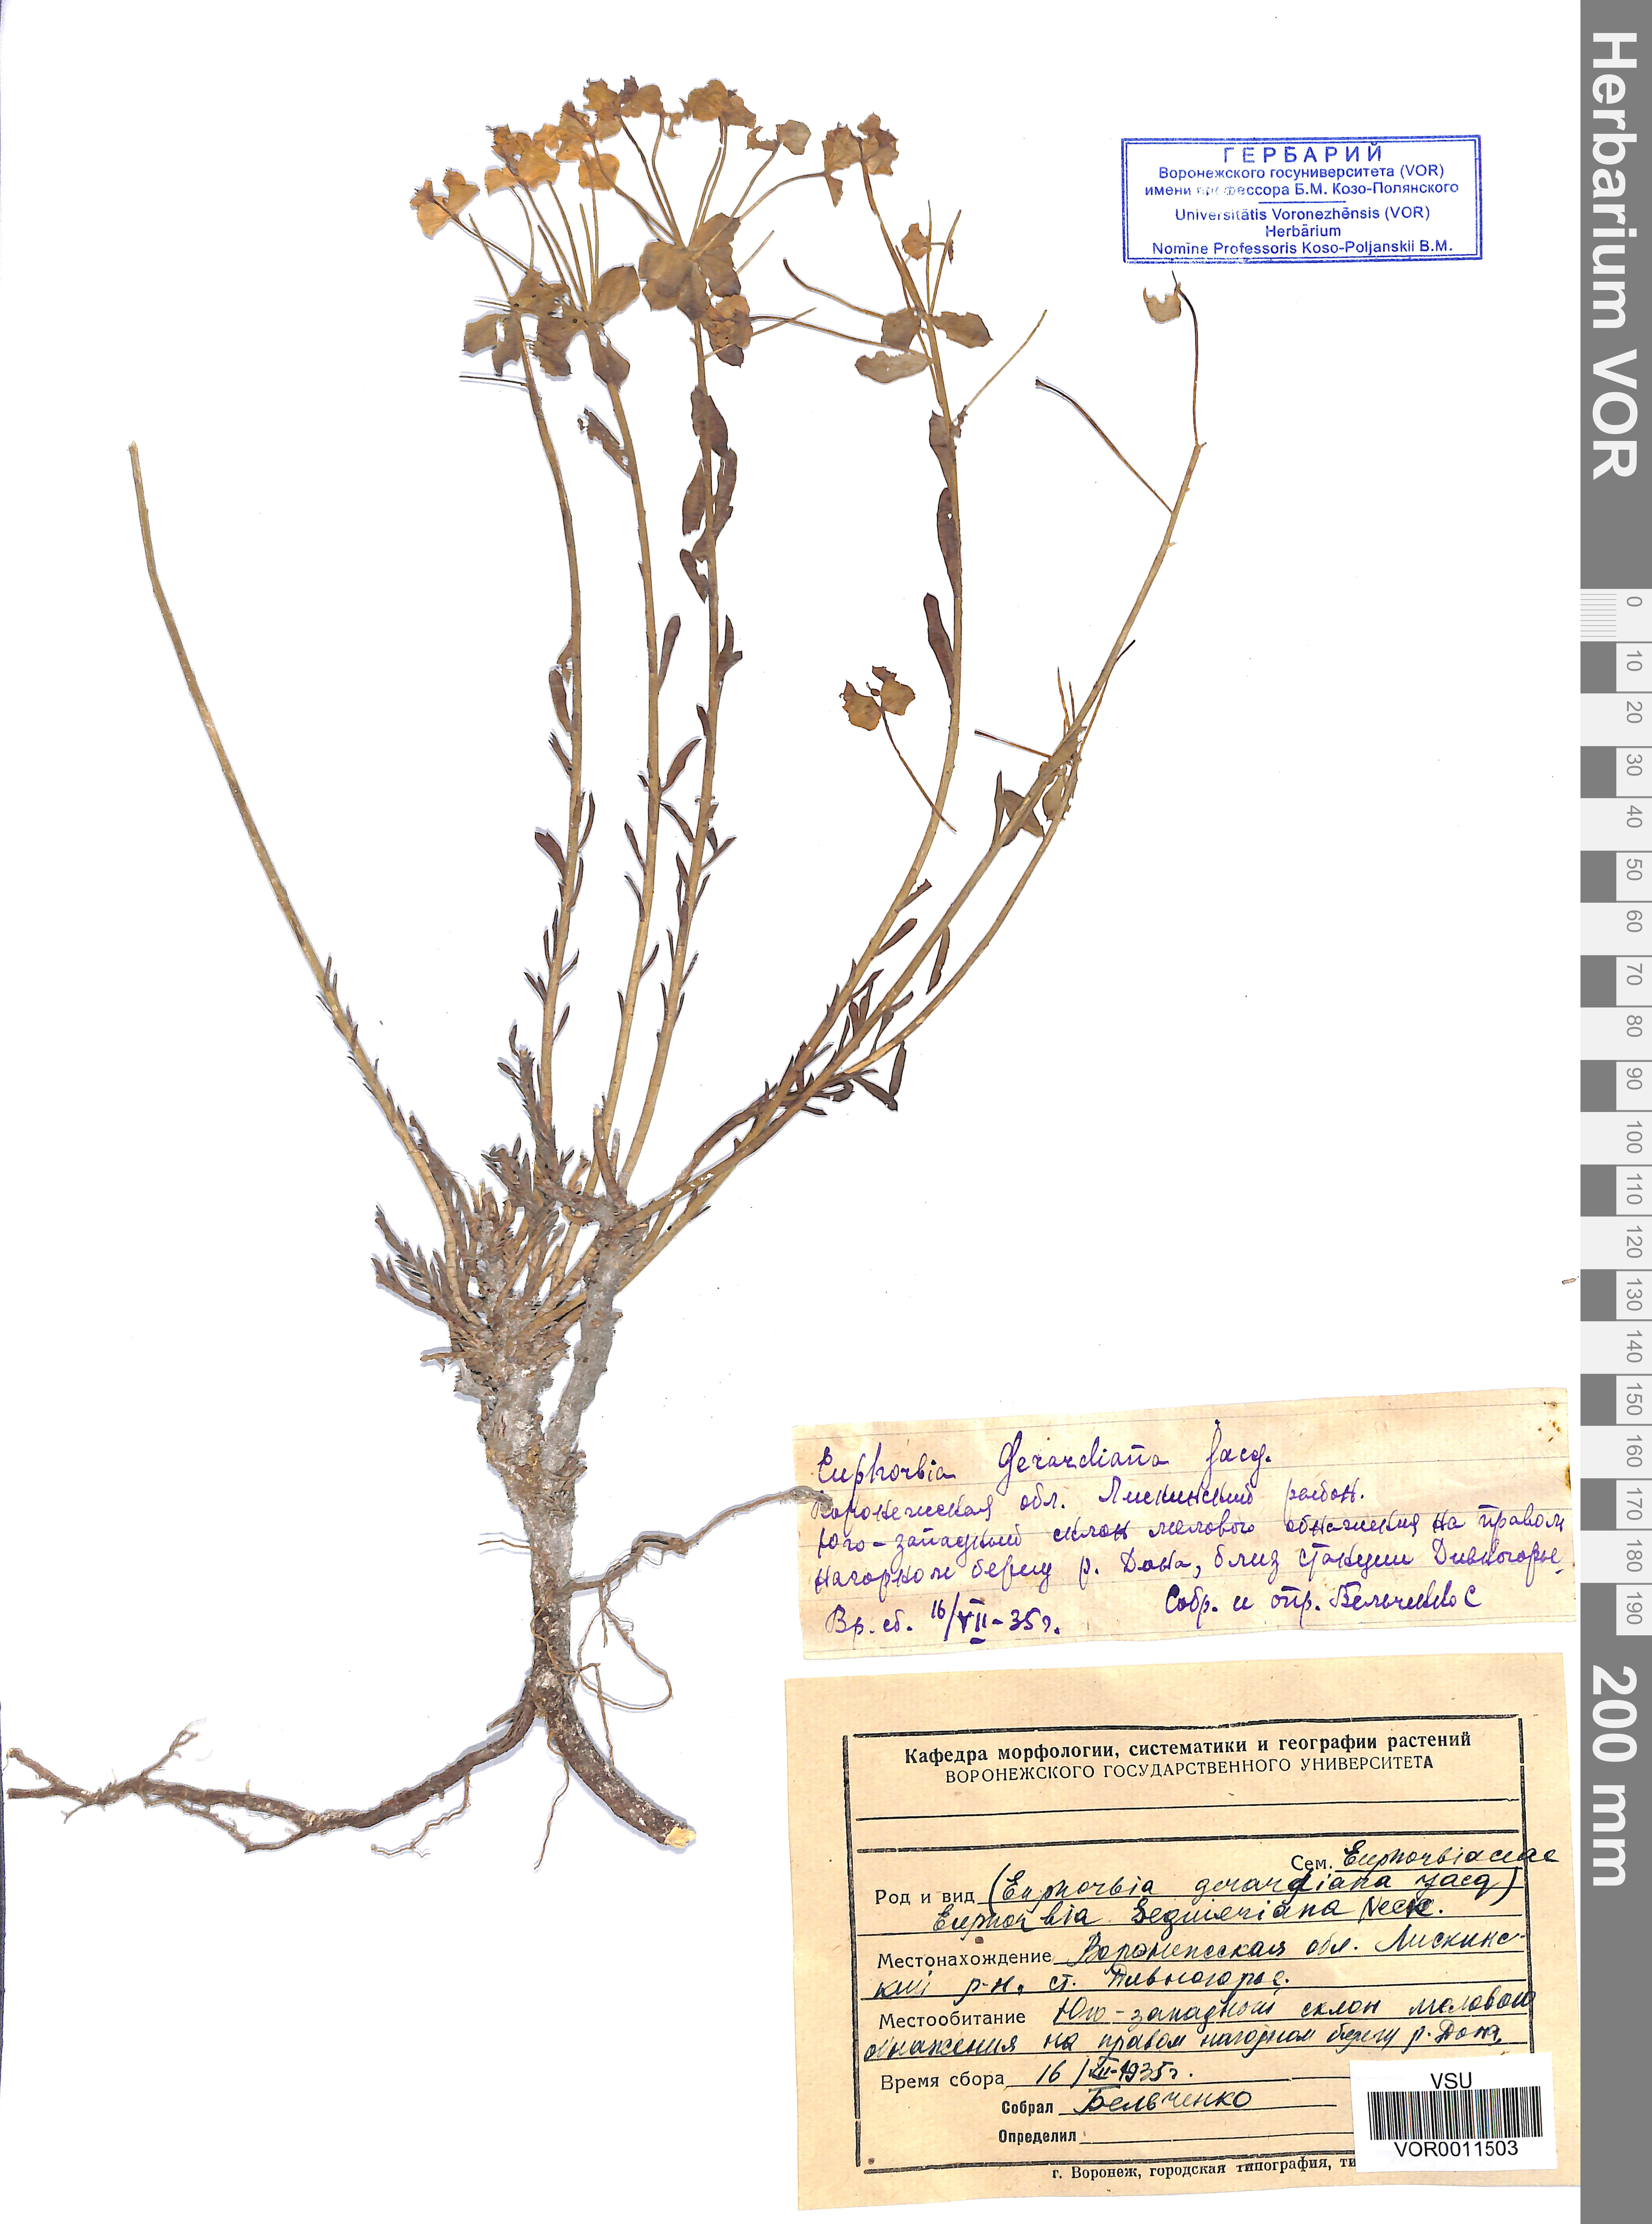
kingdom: Plantae
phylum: Tracheophyta
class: Magnoliopsida
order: Malpighiales
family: Euphorbiaceae
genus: Euphorbia
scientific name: Euphorbia seguieriana
